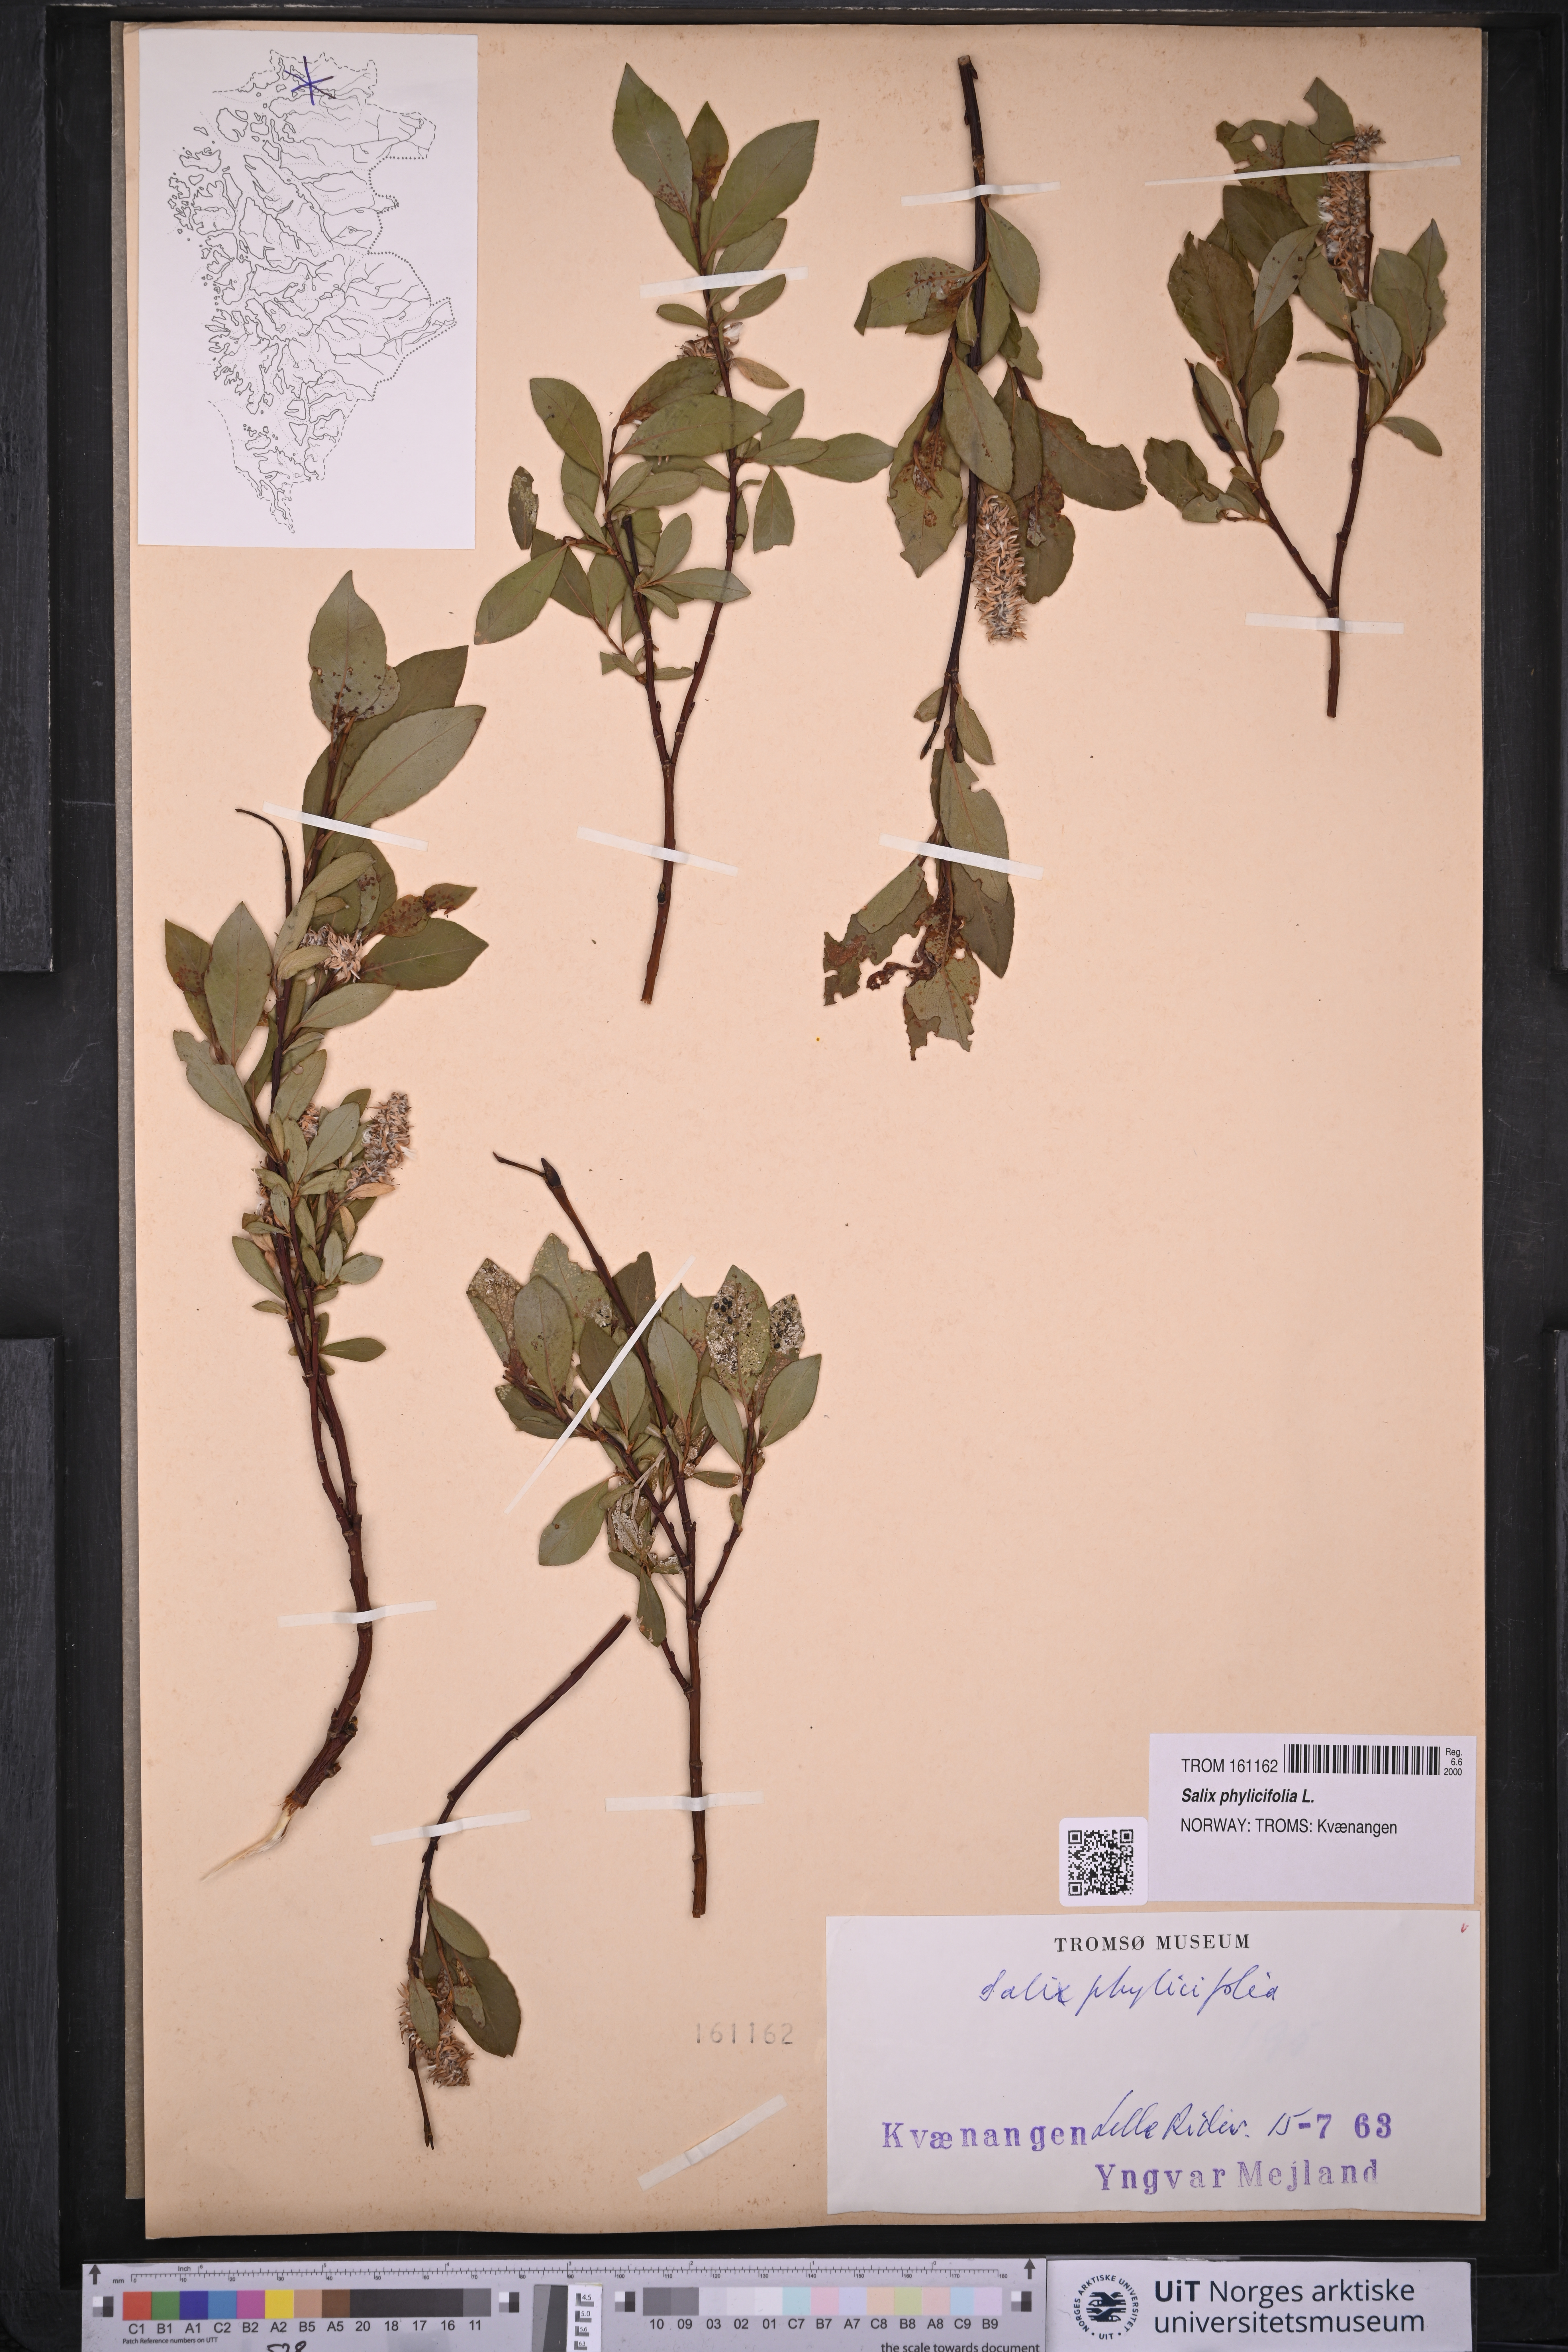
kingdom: Plantae
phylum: Tracheophyta
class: Magnoliopsida
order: Malpighiales
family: Salicaceae
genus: Salix
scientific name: Salix phylicifolia
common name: Tea-leaved willow
